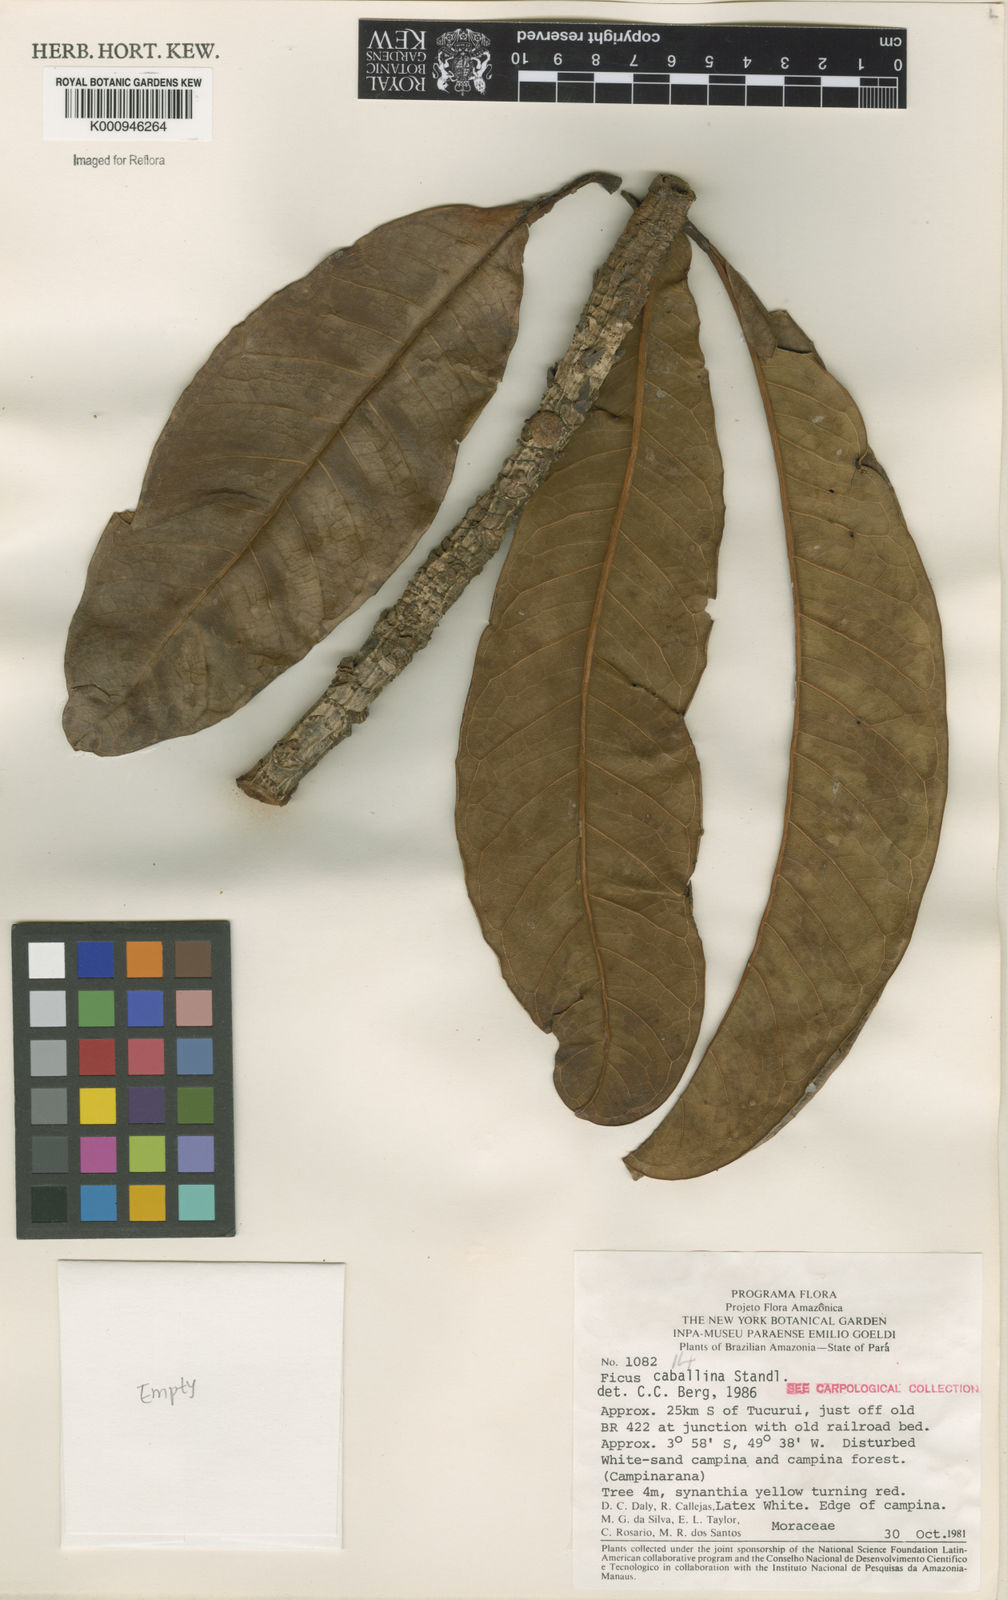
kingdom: Plantae
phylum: Tracheophyta
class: Magnoliopsida
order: Rosales
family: Moraceae
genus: Ficus
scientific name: Ficus caballina
